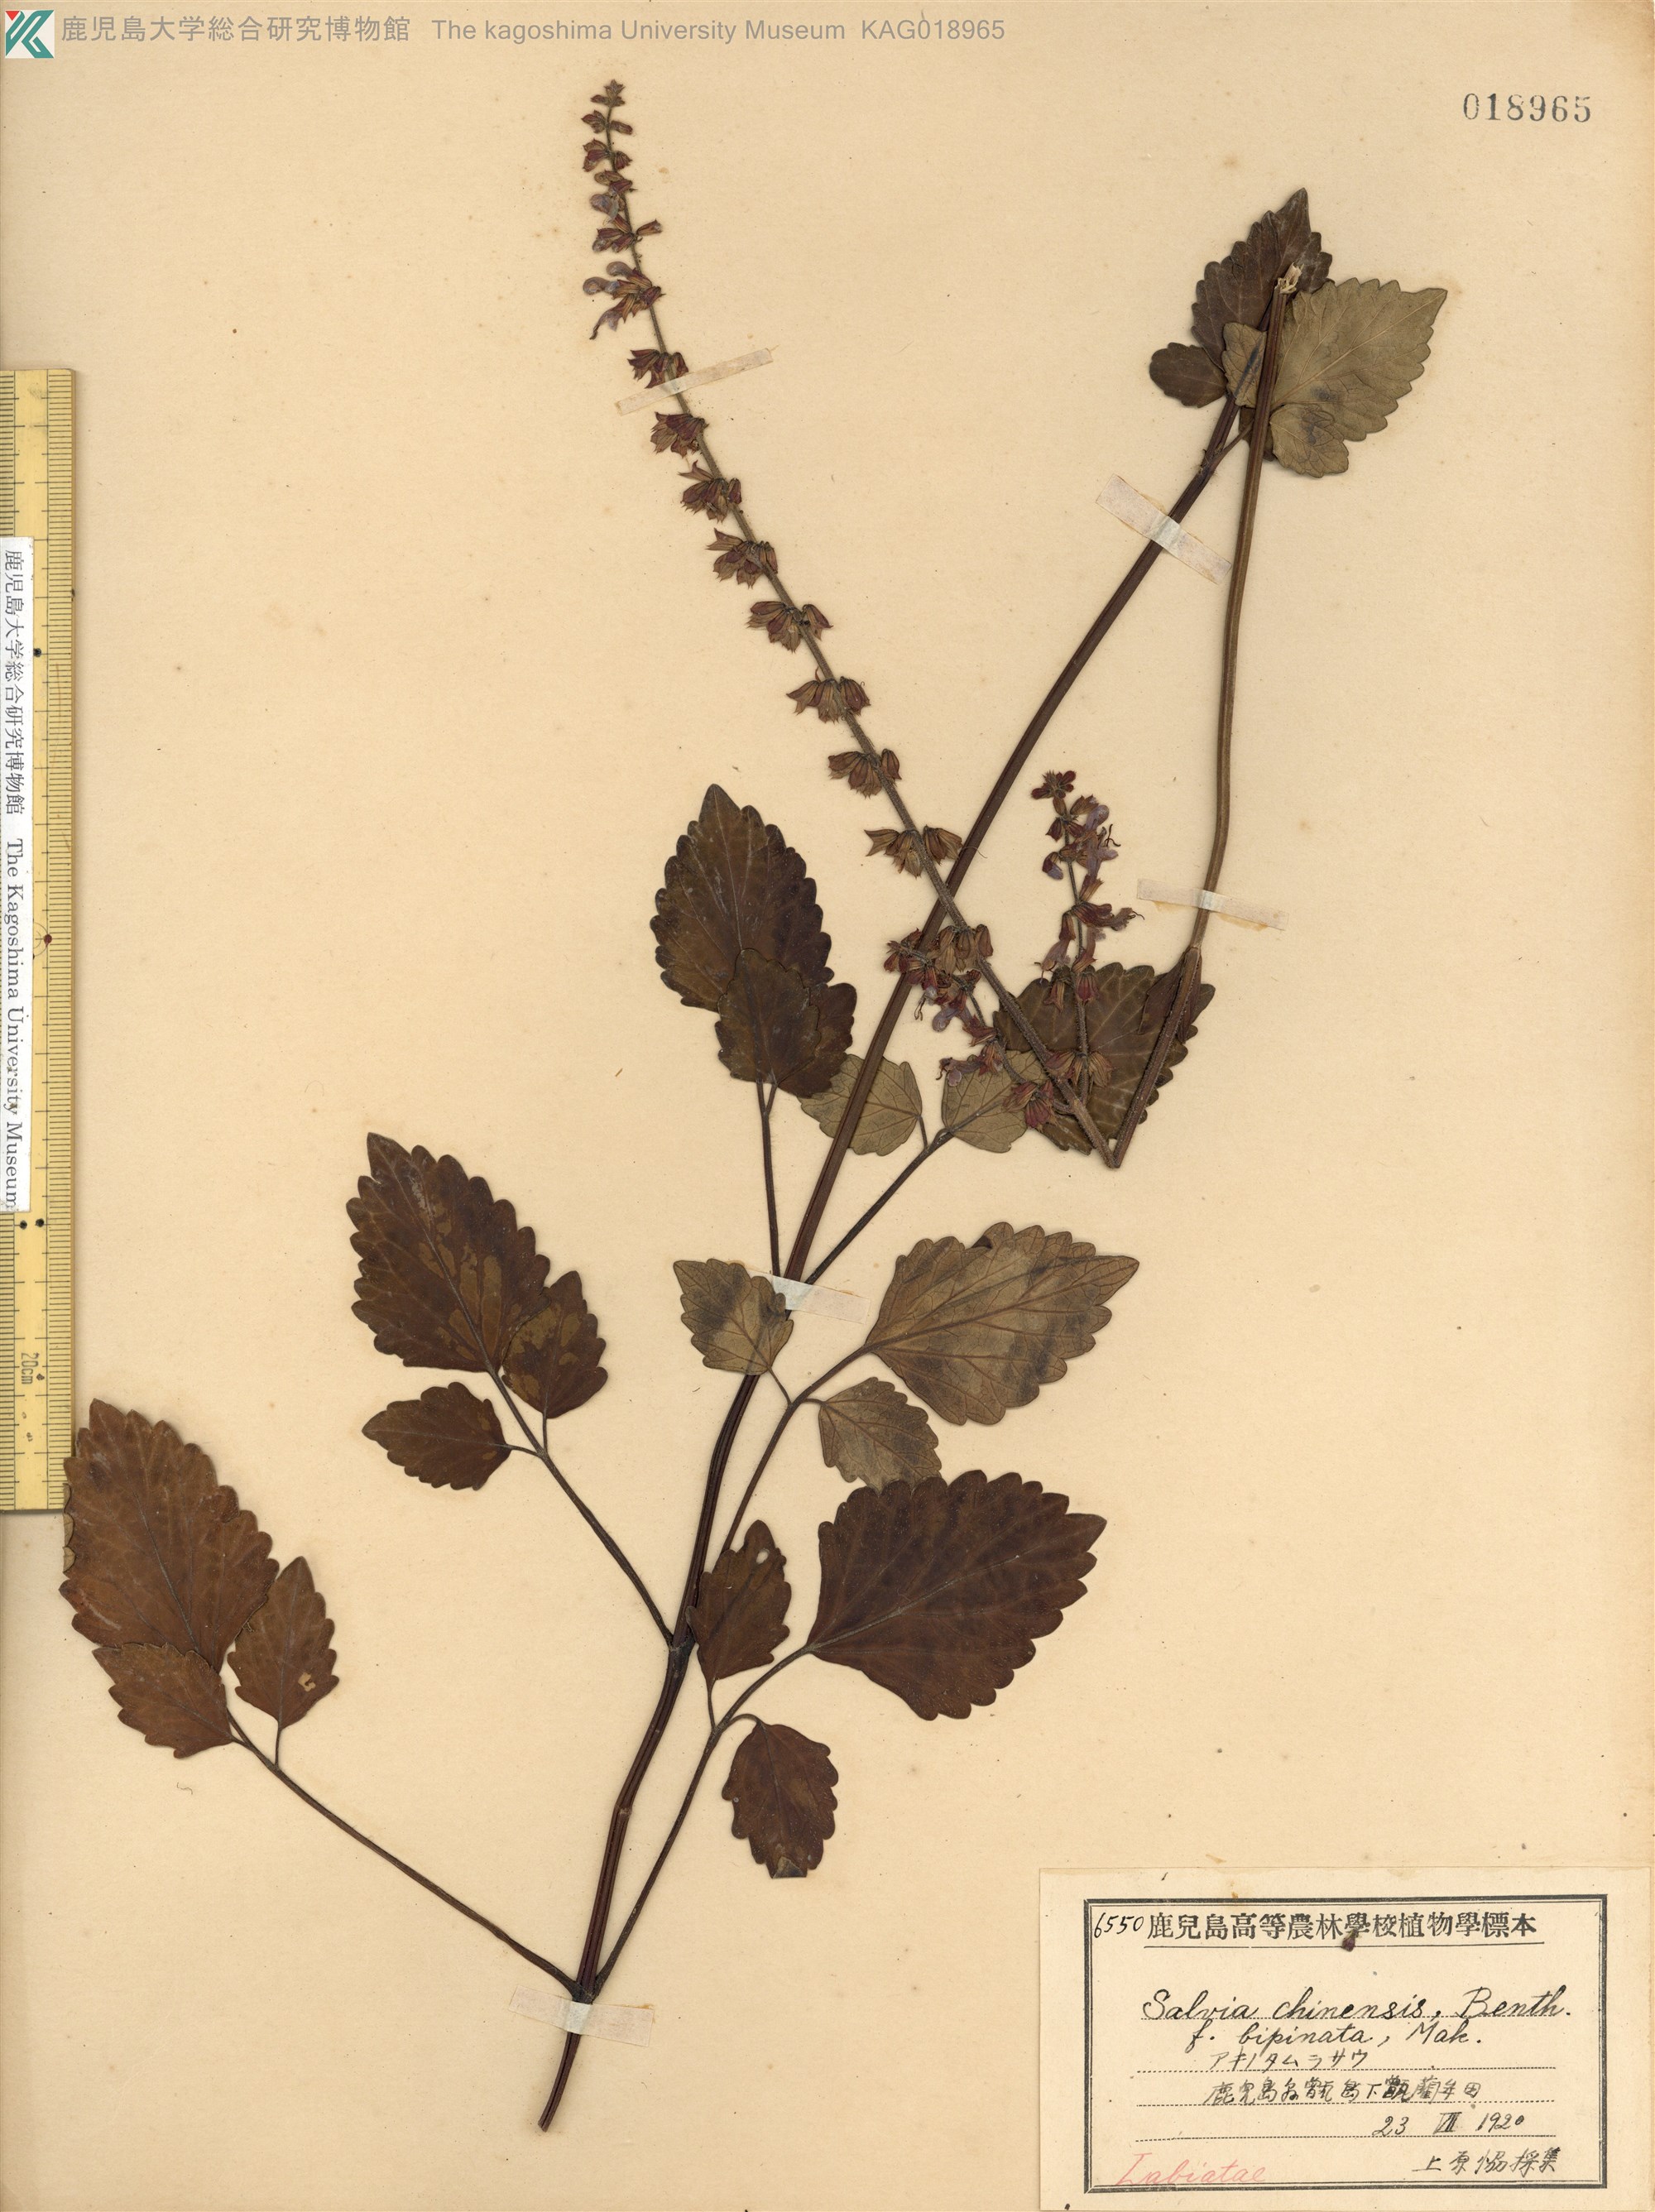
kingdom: Plantae
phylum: Tracheophyta
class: Magnoliopsida
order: Lamiales
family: Lamiaceae
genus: Salvia
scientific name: Salvia japonica
